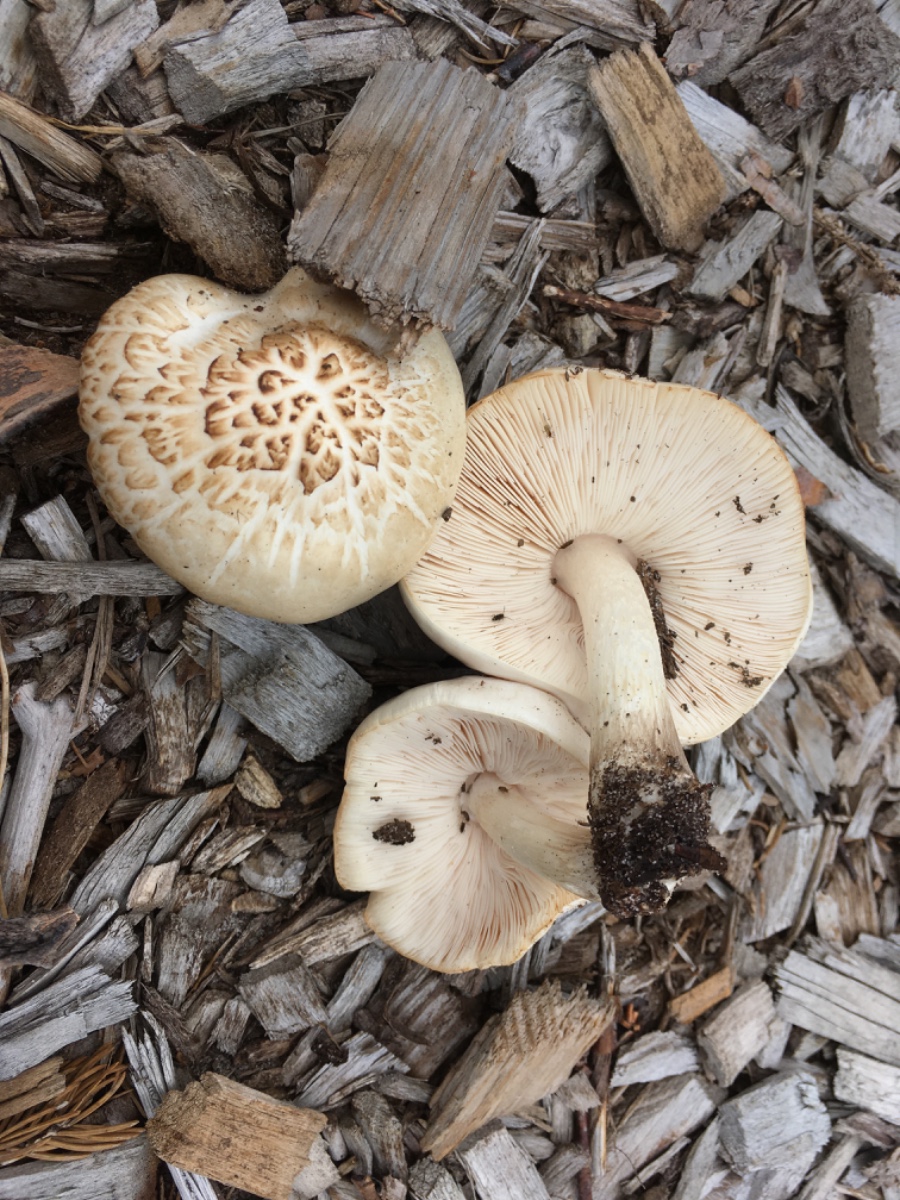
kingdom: Fungi
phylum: Basidiomycota
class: Agaricomycetes
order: Agaricales
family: Pluteaceae
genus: Pluteus
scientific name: Pluteus petasatus
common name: savsmulds-skærmhat
